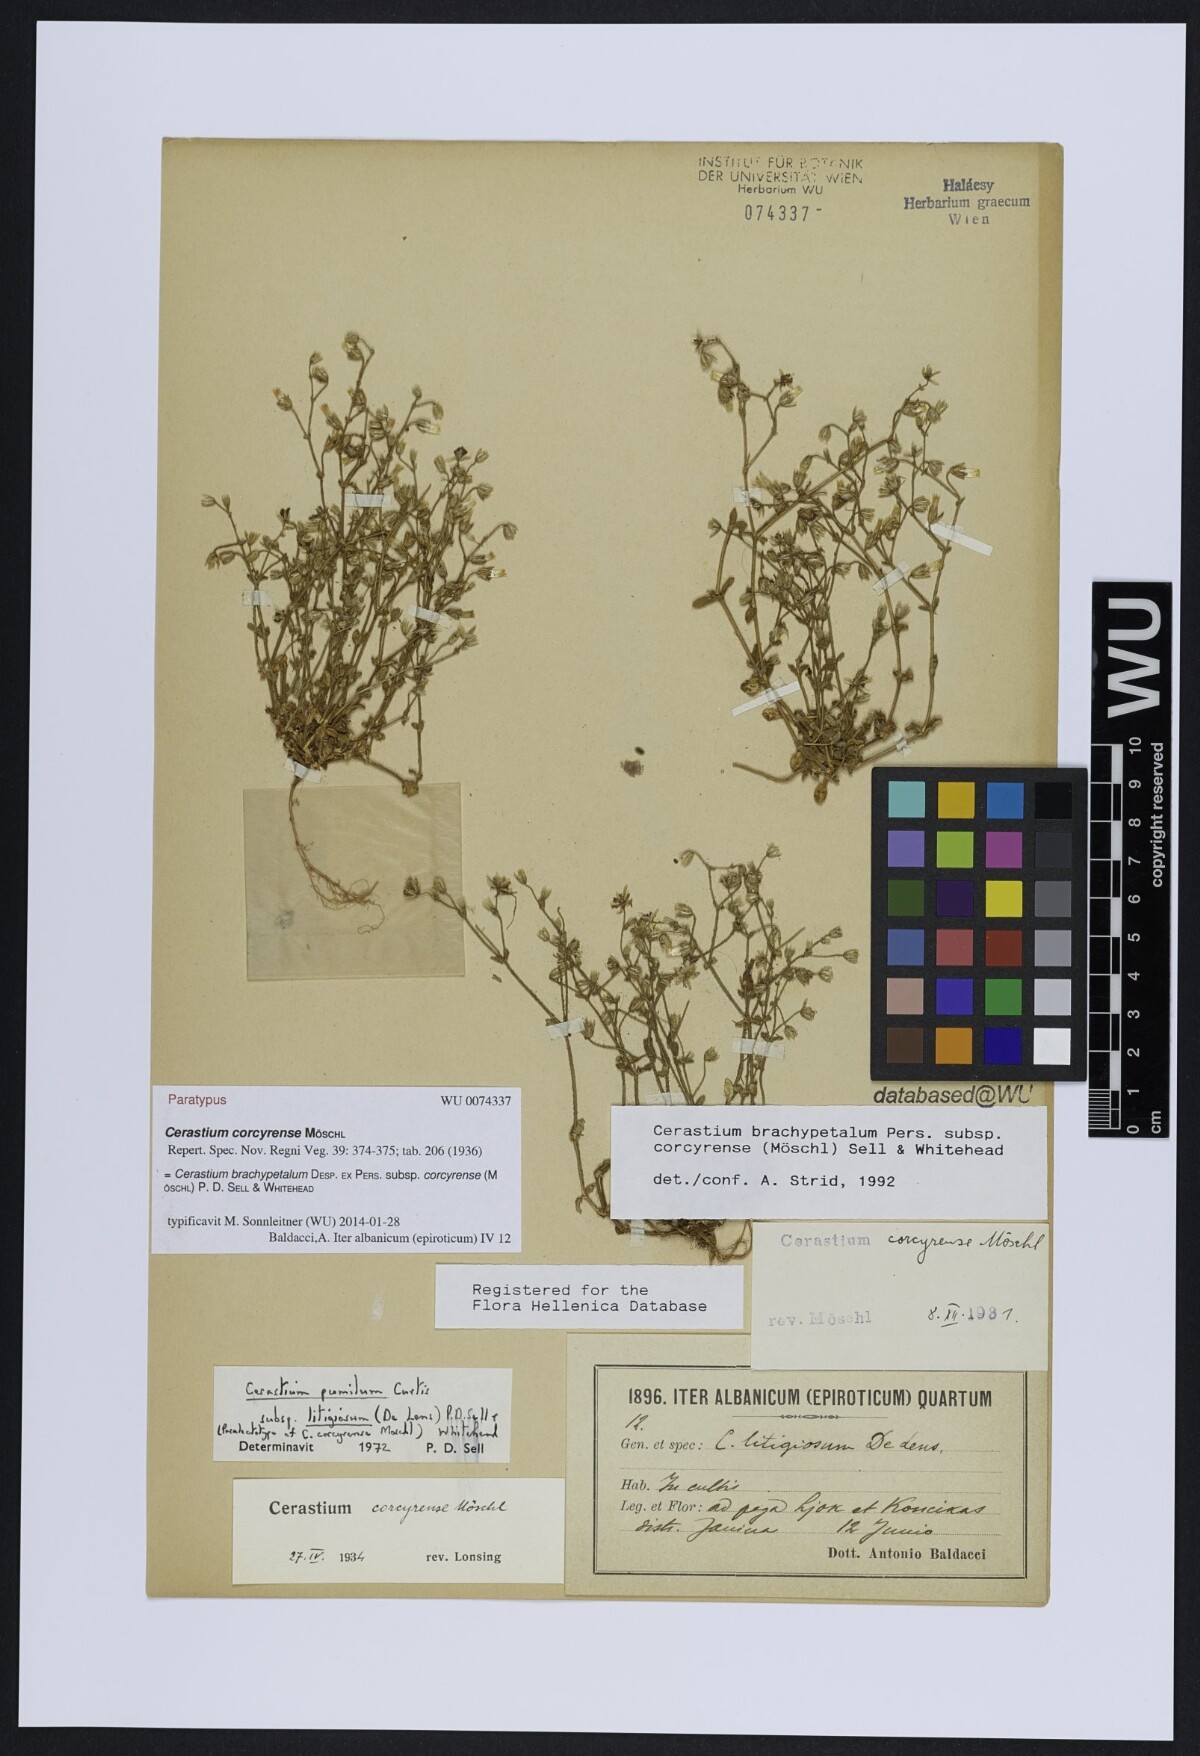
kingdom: Plantae
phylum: Tracheophyta
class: Magnoliopsida
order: Caryophyllales
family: Caryophyllaceae
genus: Cerastium
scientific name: Cerastium brachypetalum
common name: Grey mouse-ear
